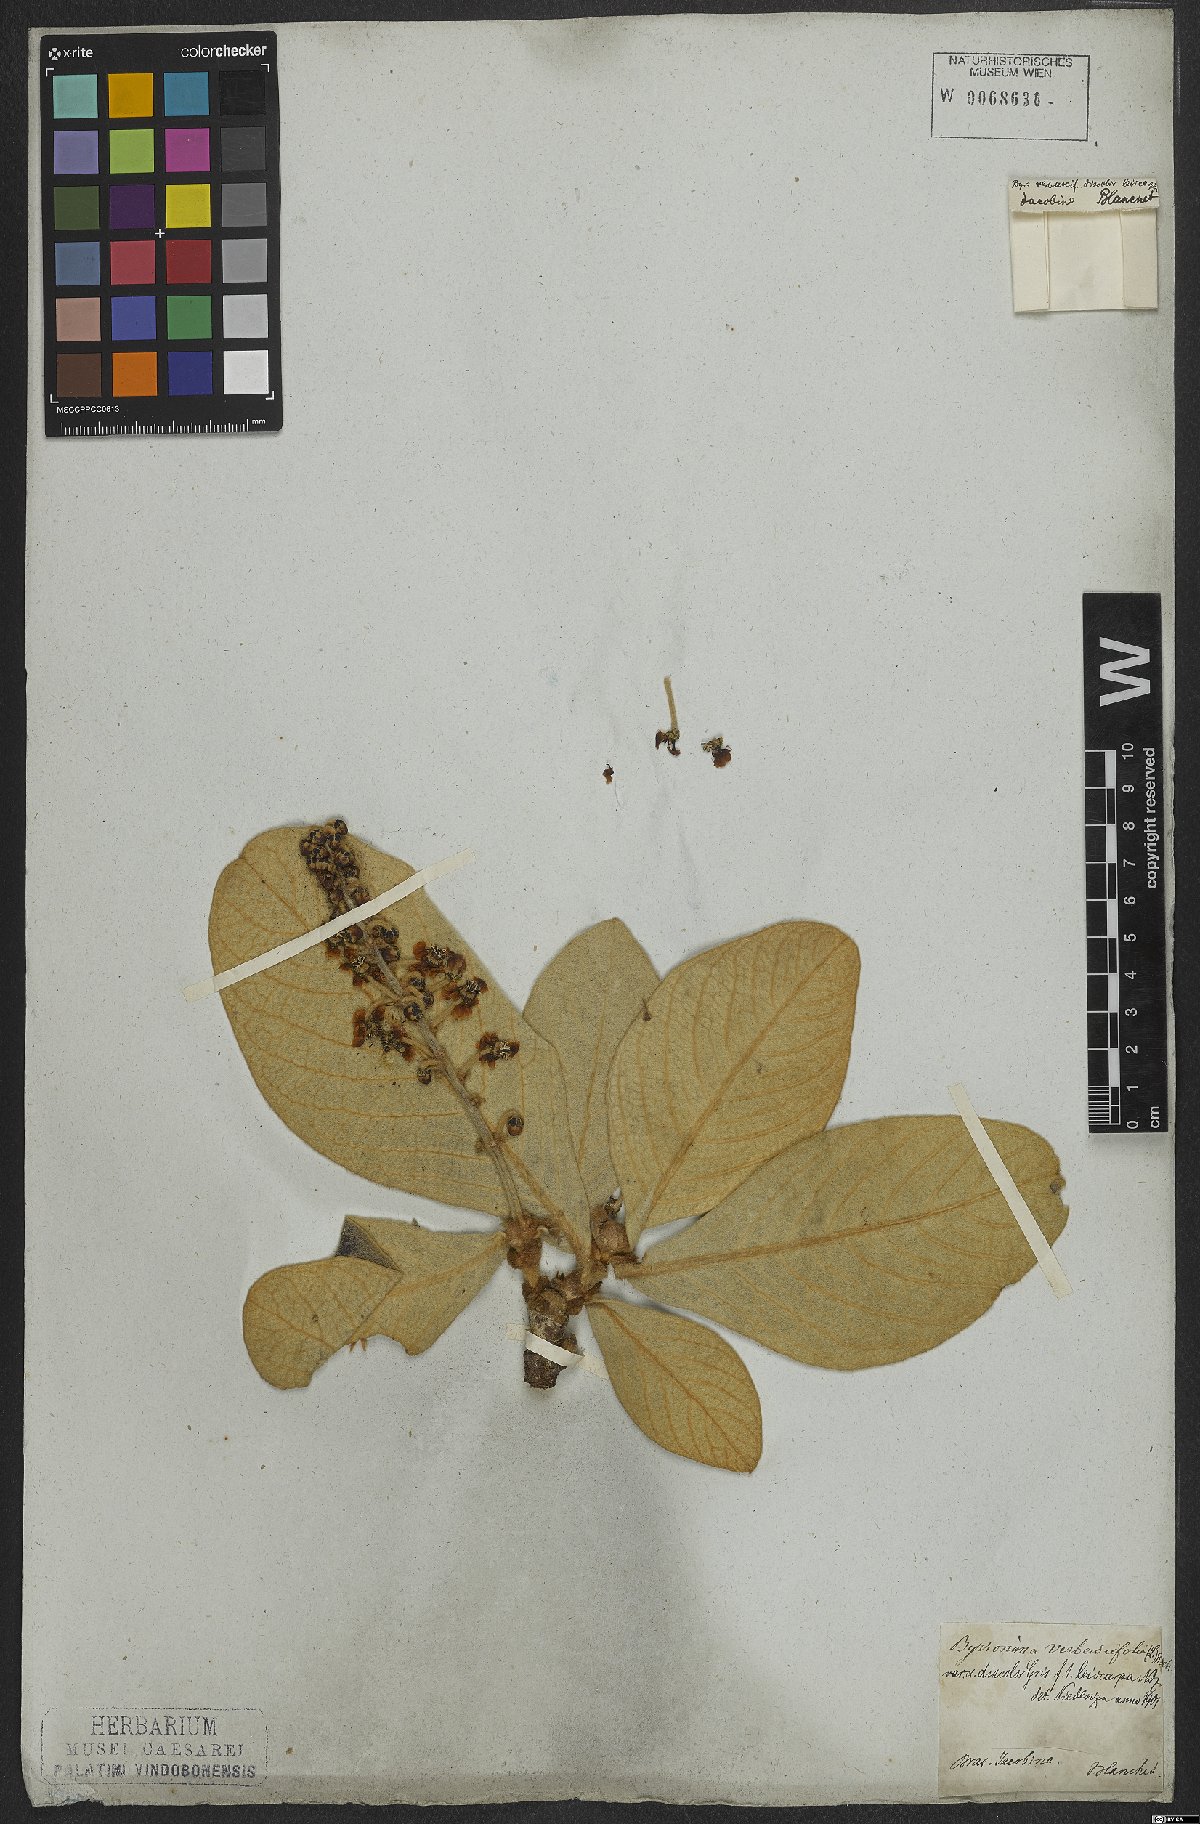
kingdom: Plantae
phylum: Tracheophyta
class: Magnoliopsida
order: Malpighiales
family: Malpighiaceae
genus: Byrsonima
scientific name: Byrsonima verbascifolia
